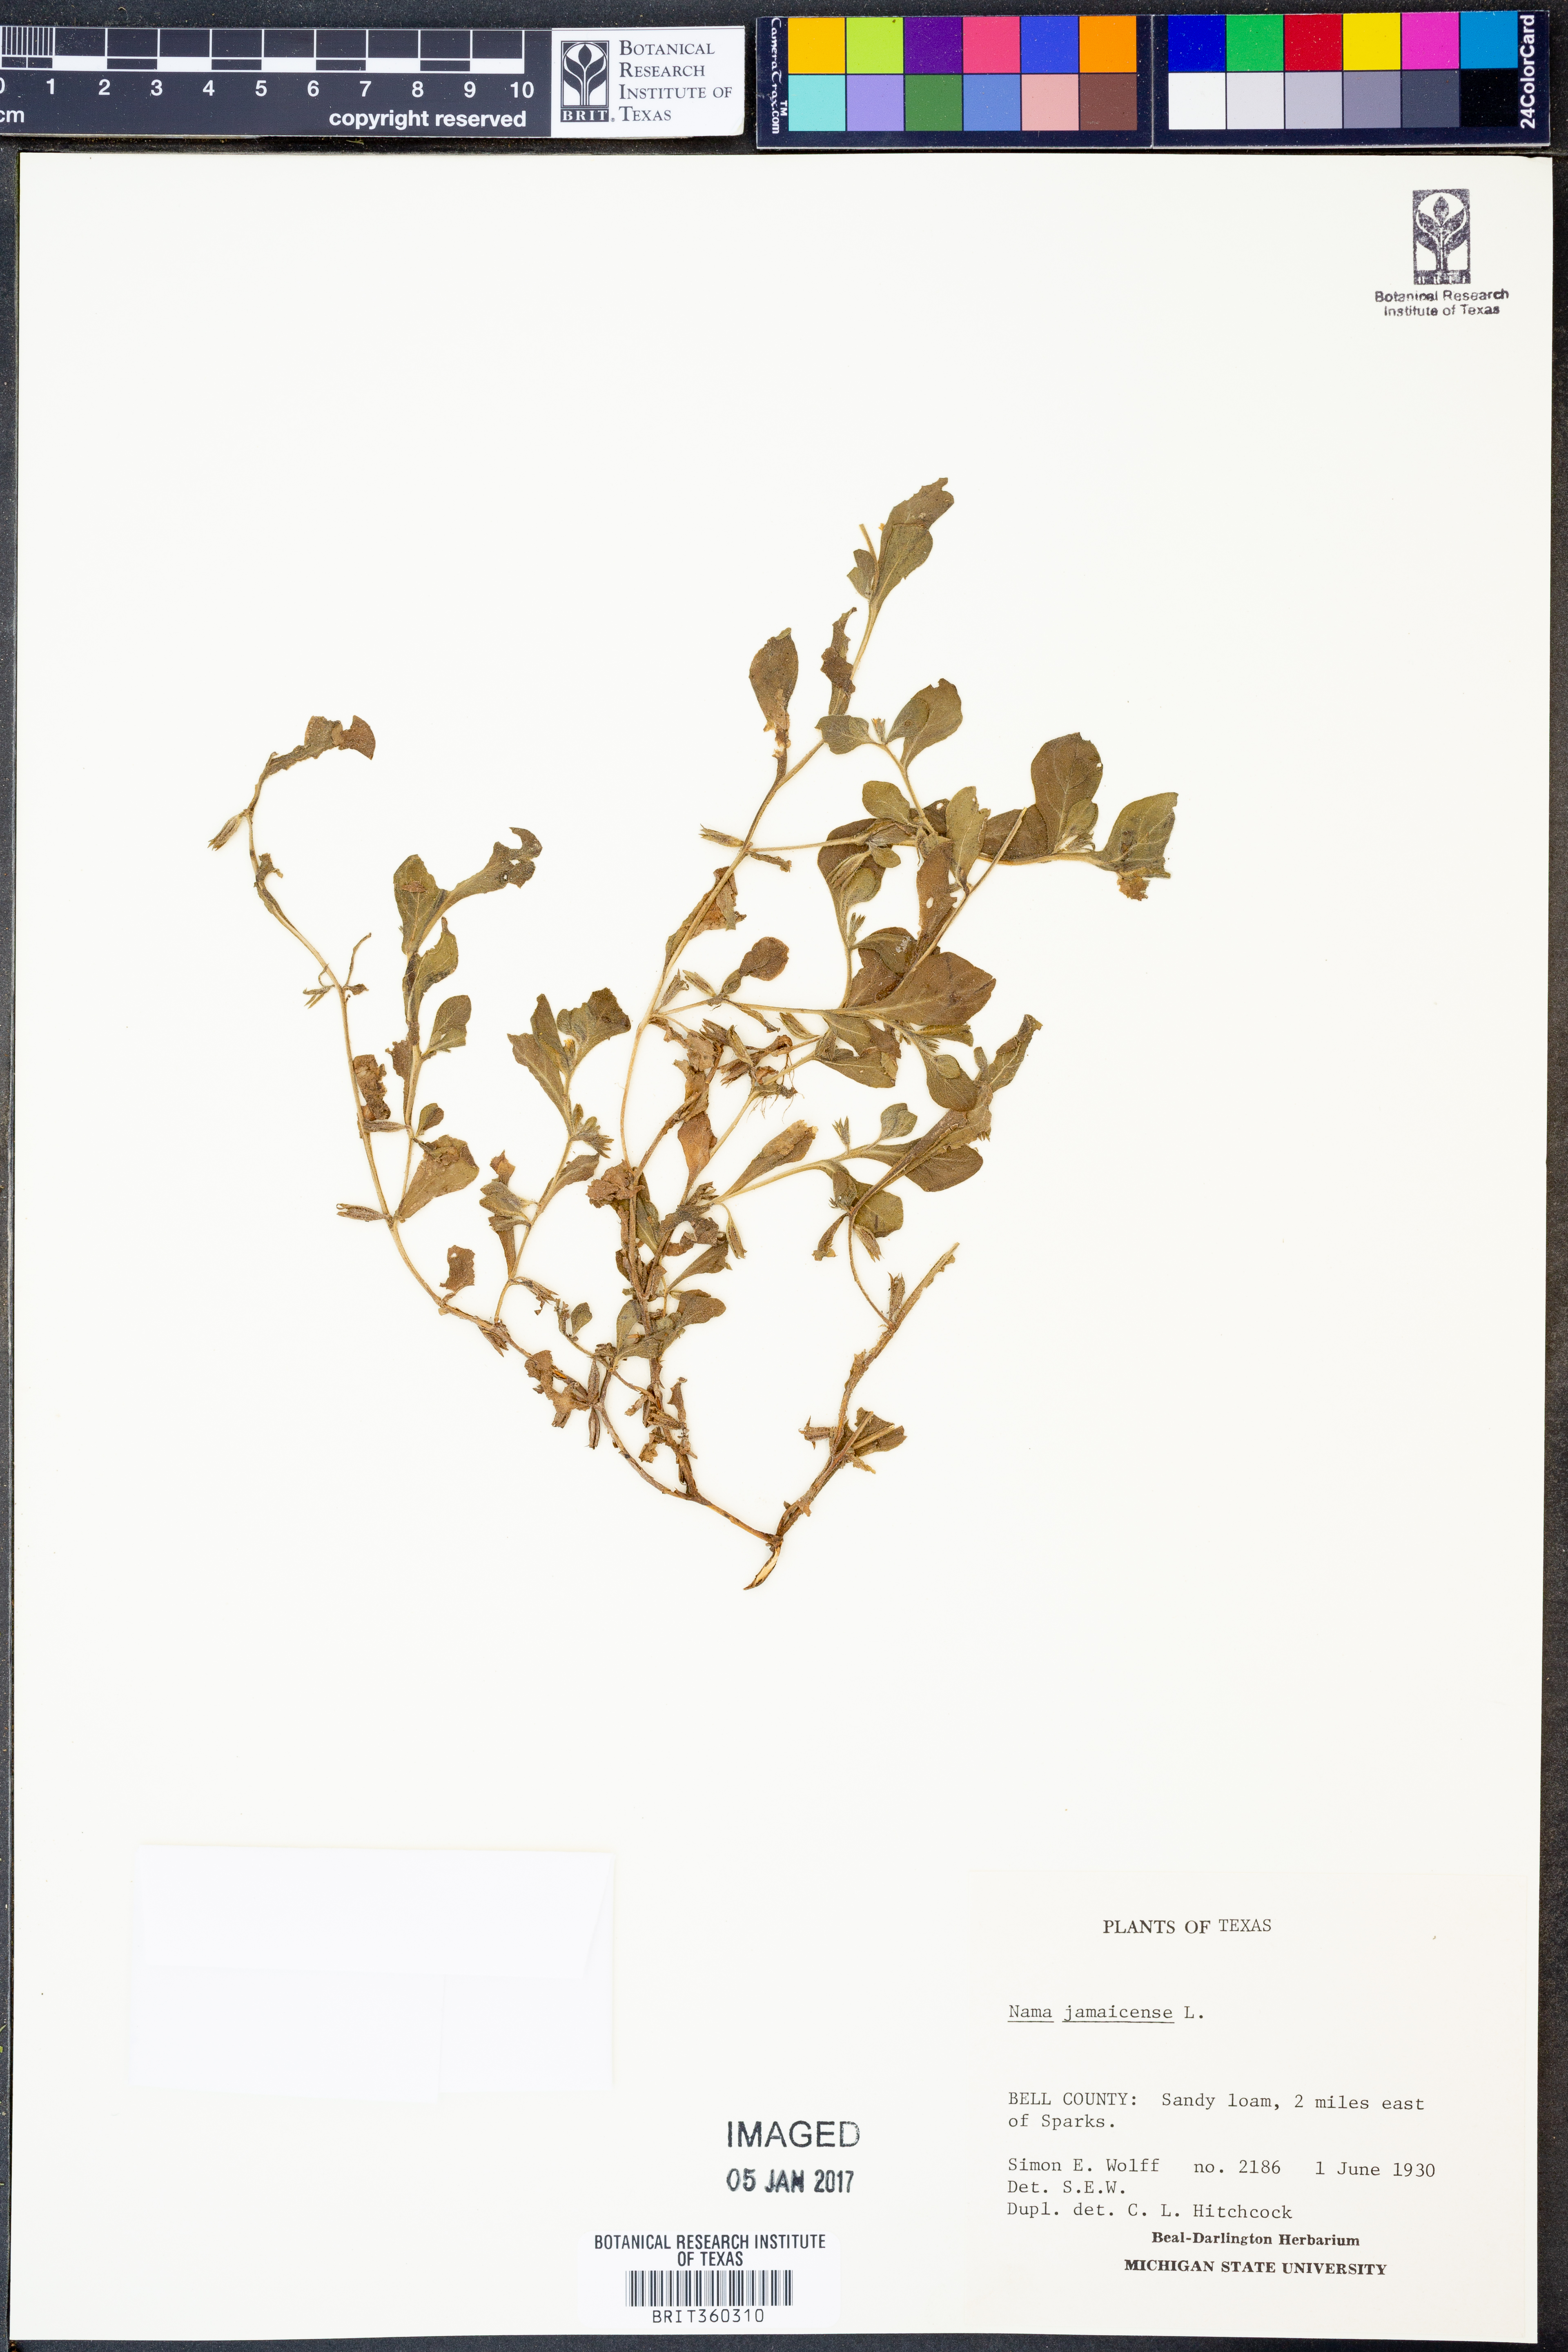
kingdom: Plantae
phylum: Tracheophyta
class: Magnoliopsida
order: Boraginales
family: Namaceae
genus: Nama
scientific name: Nama jamaicense
